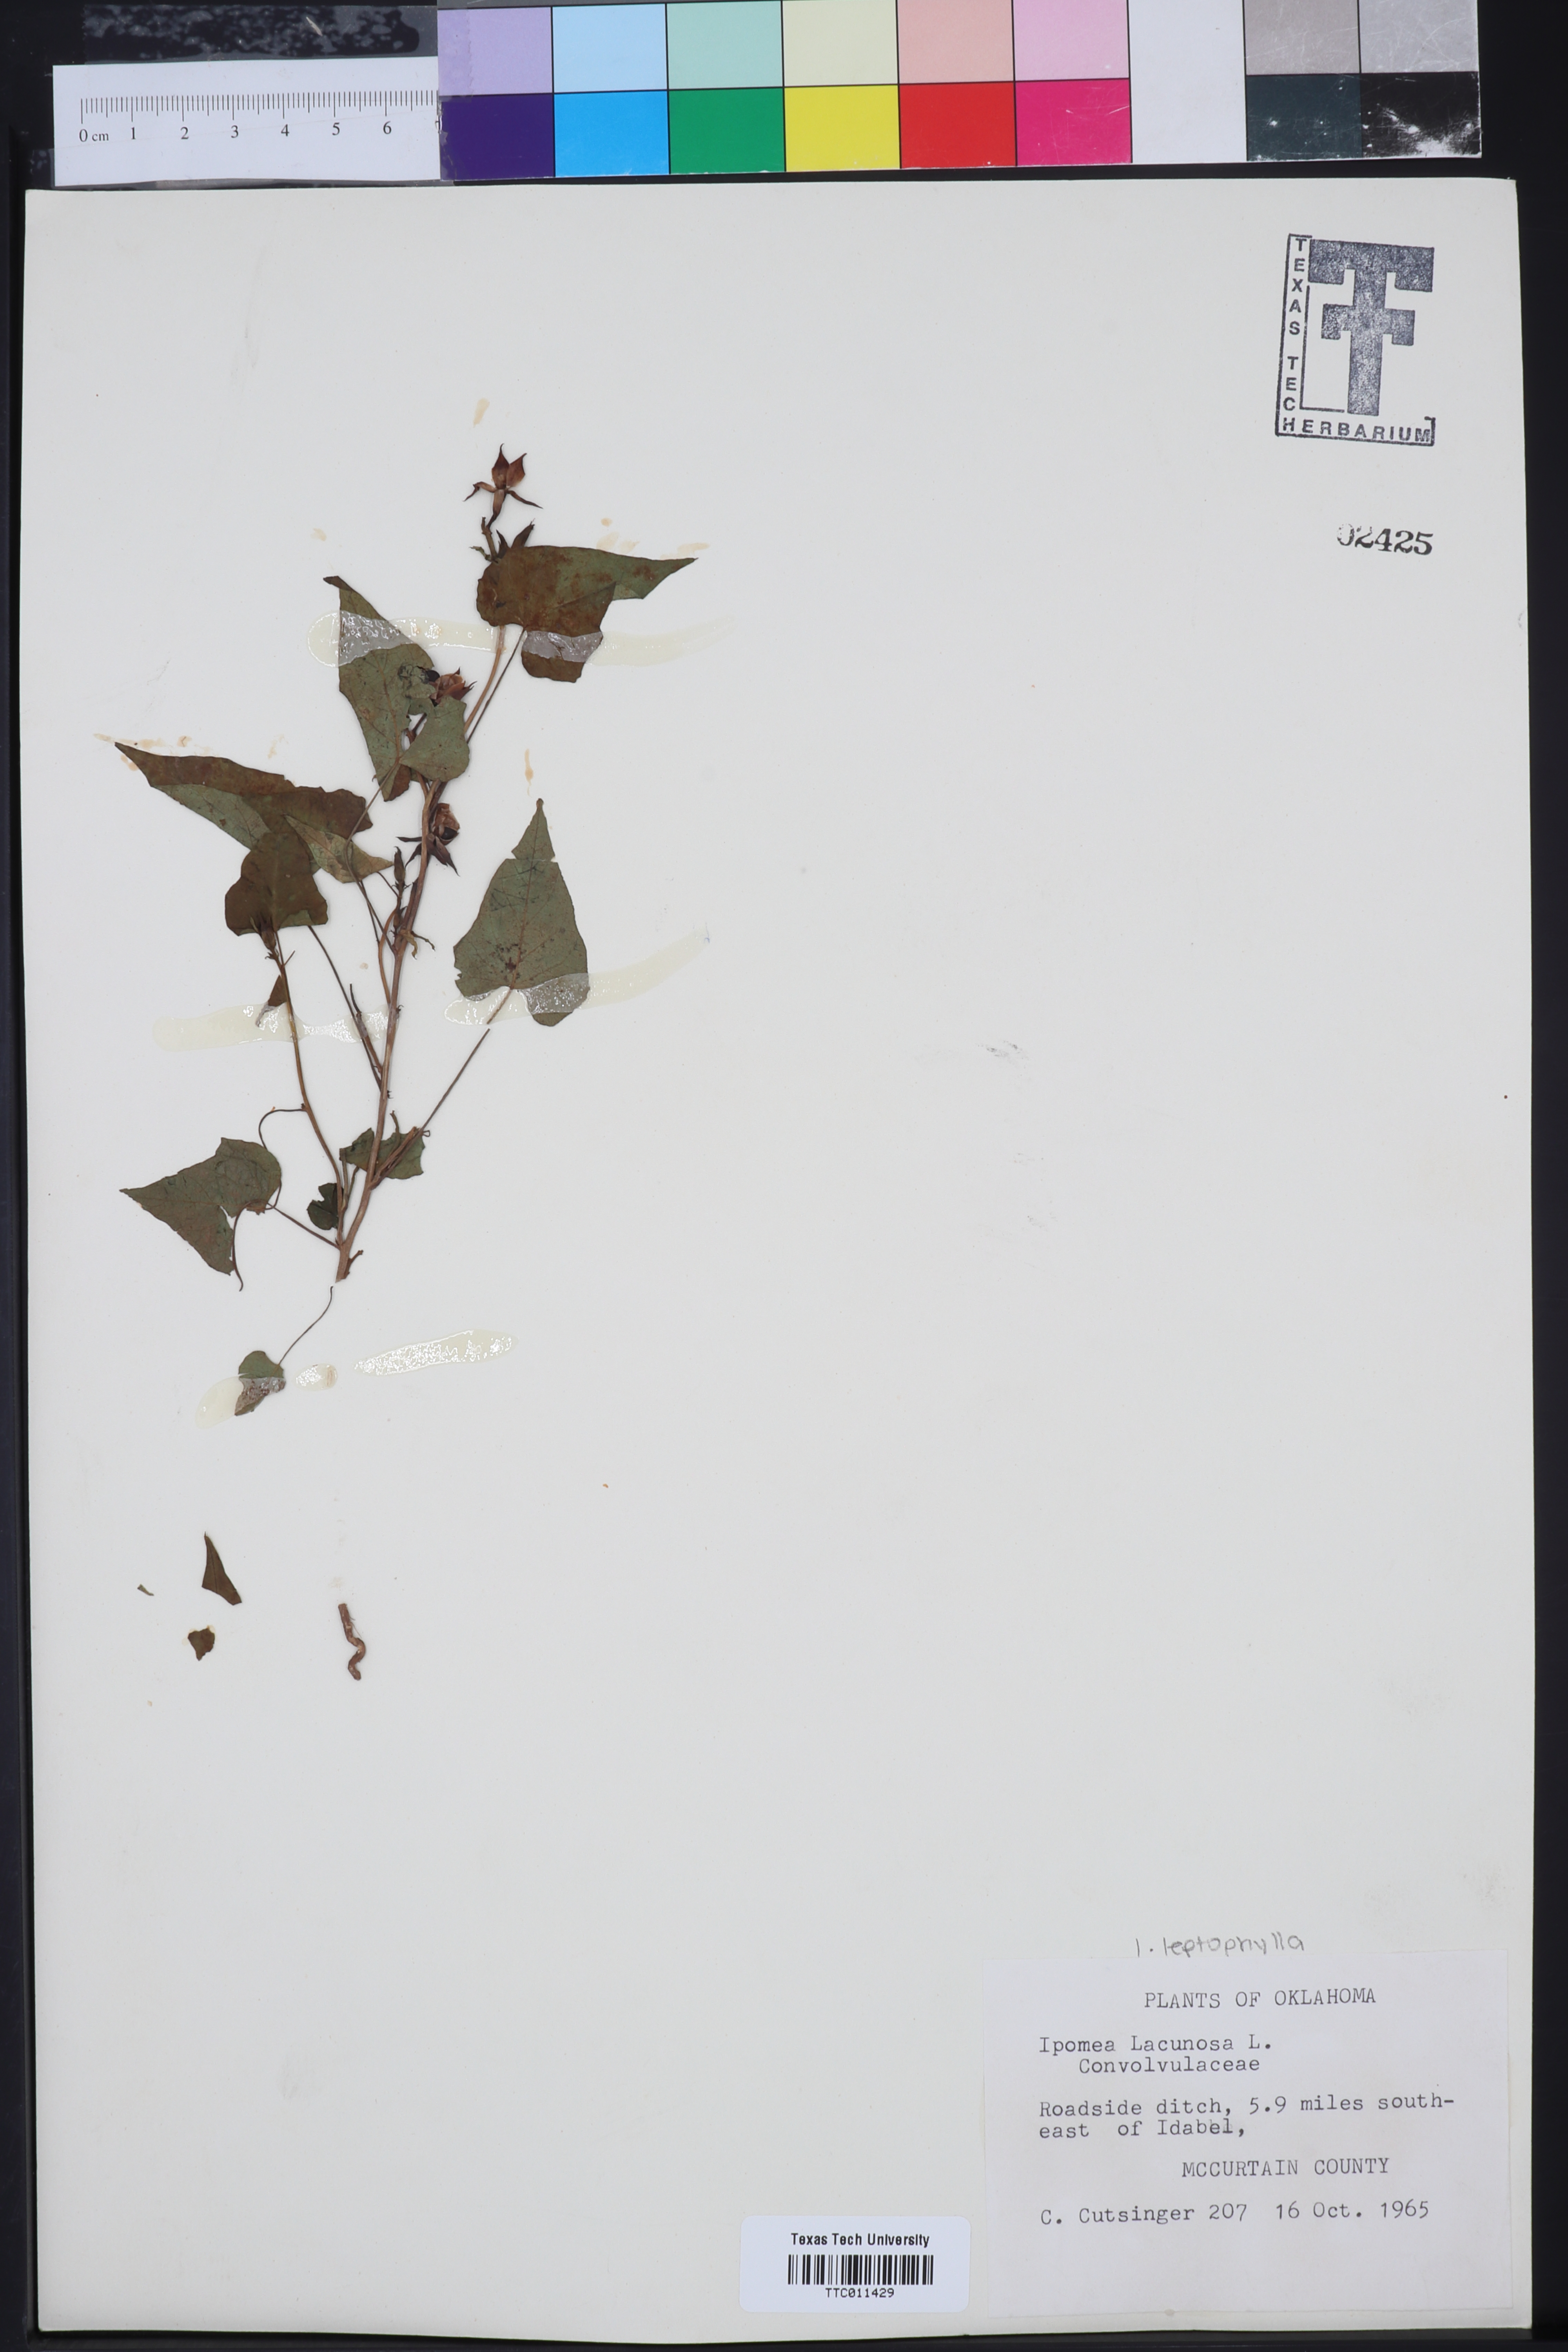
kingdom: Plantae
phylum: Tracheophyta
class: Magnoliopsida
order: Solanales
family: Convolvulaceae
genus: Ipomoea
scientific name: Ipomoea lacunosa
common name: White morning-glory
